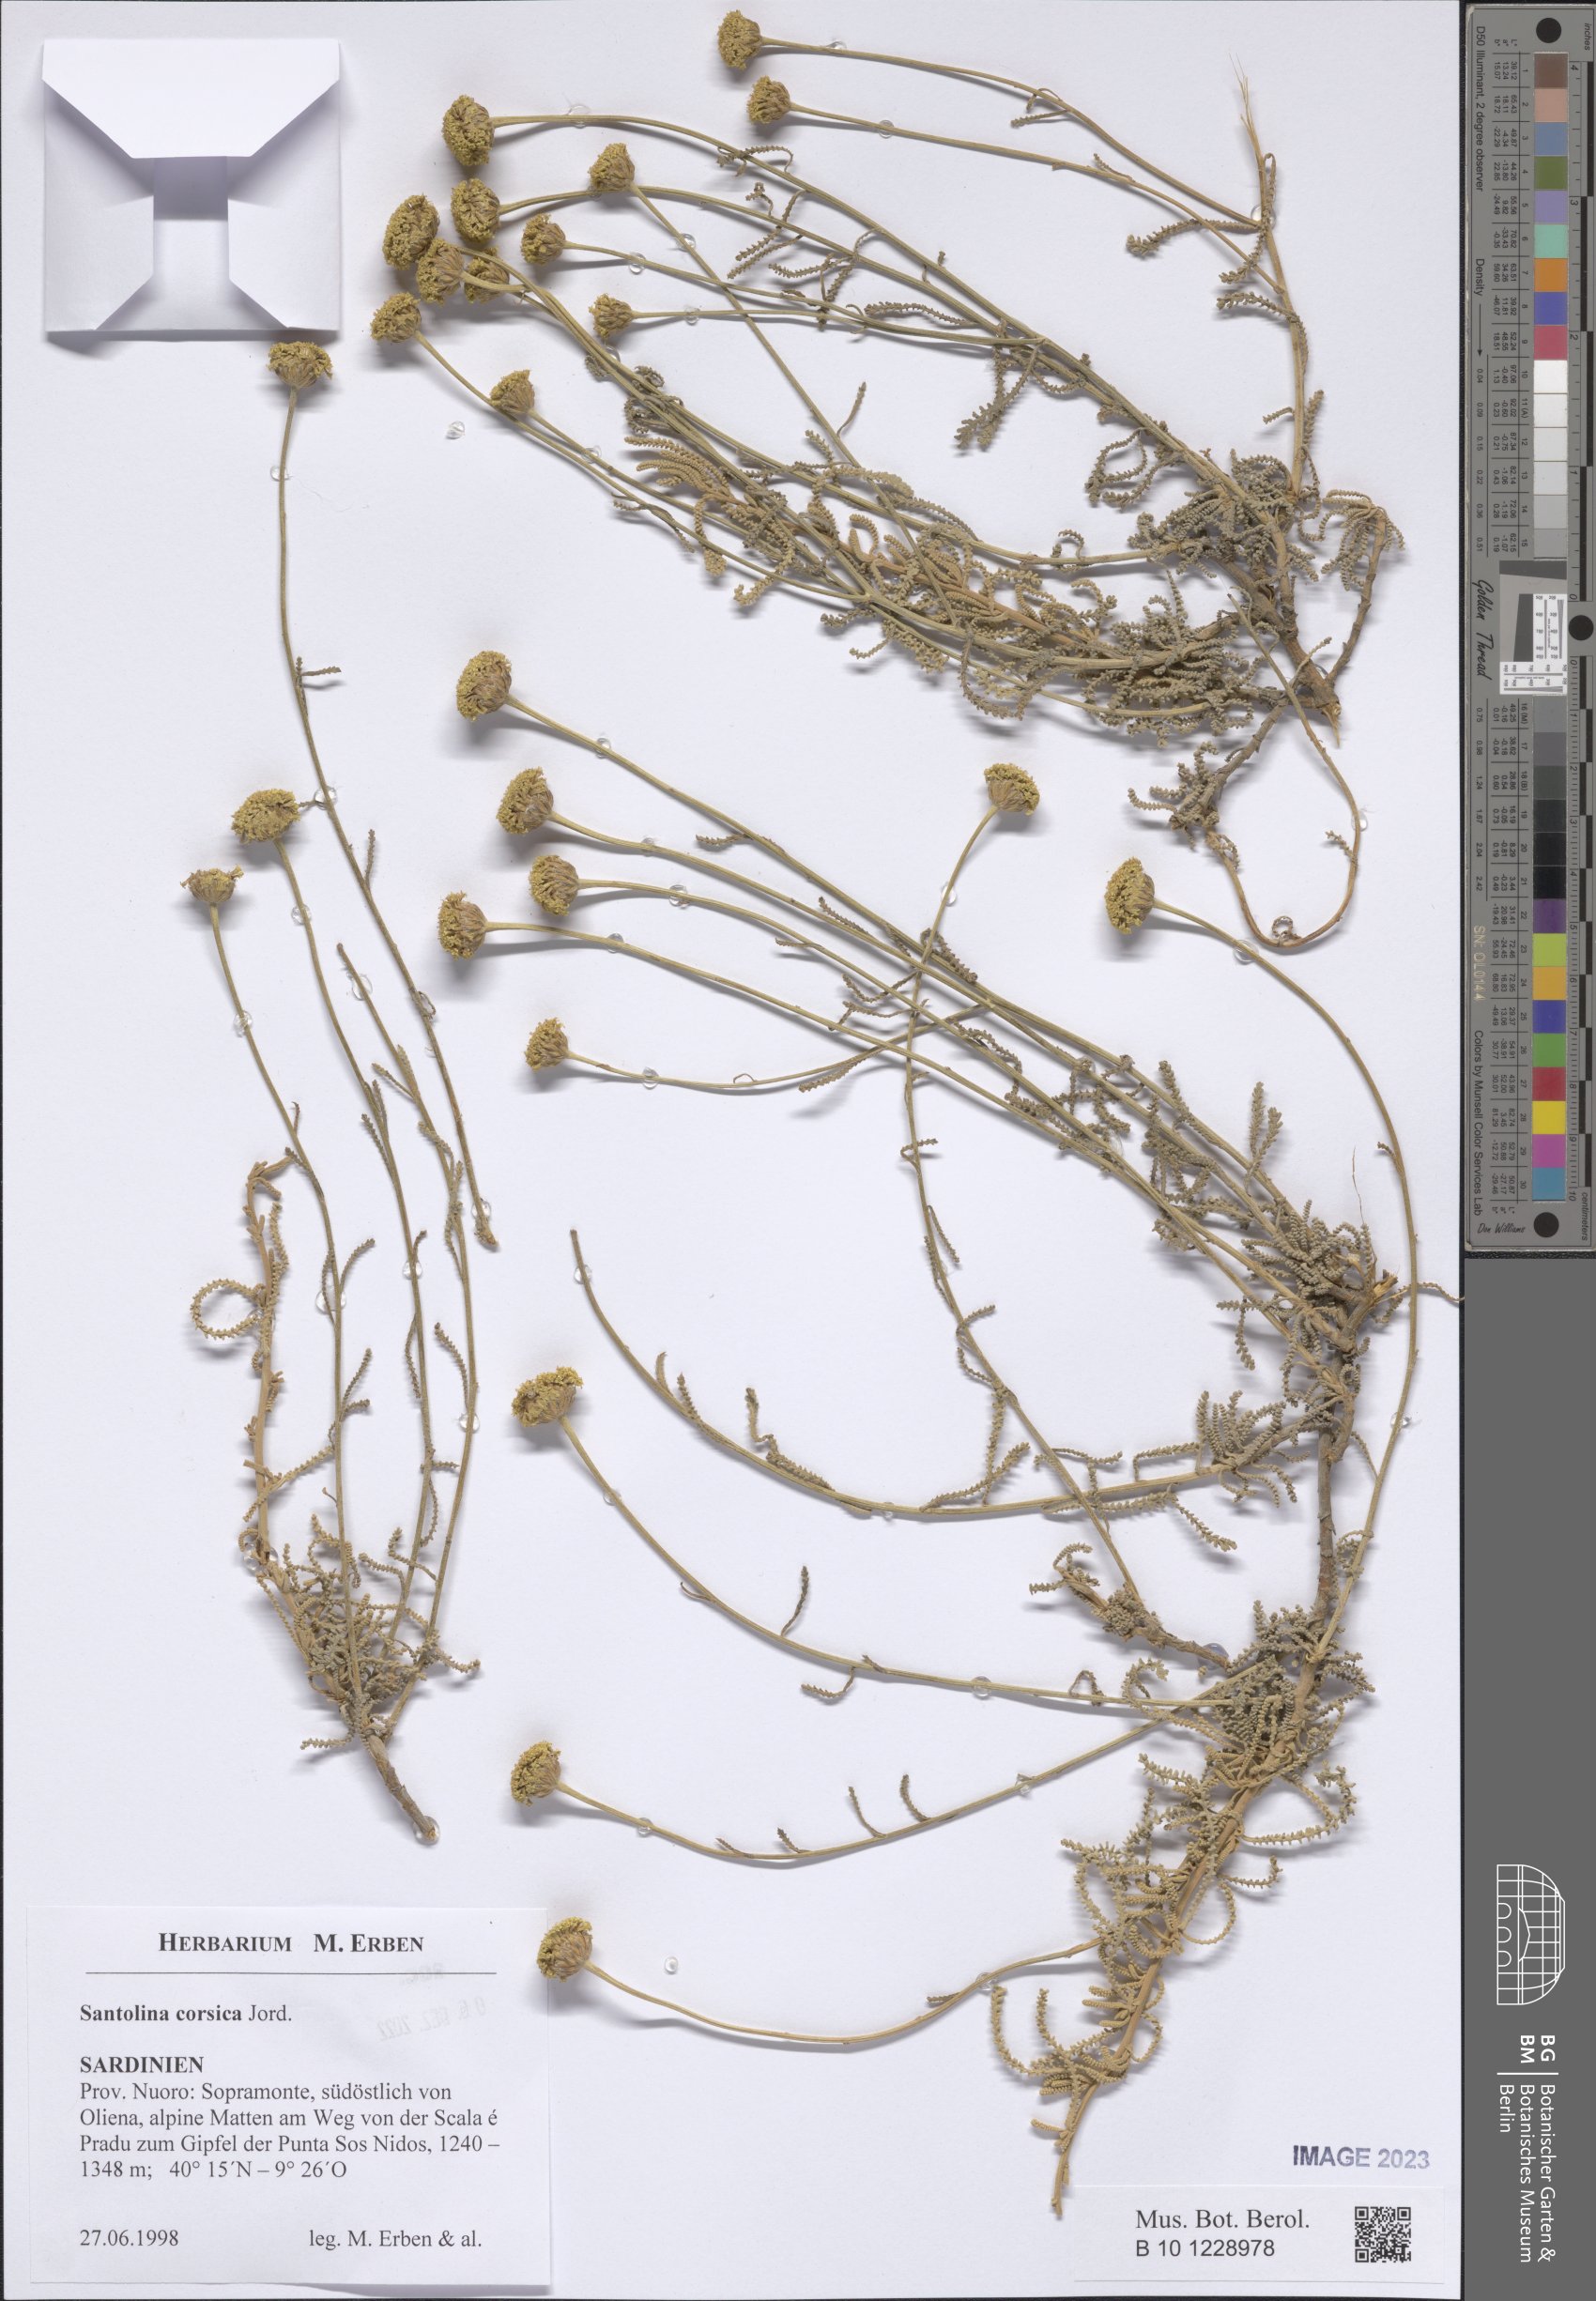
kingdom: Plantae
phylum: Tracheophyta
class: Magnoliopsida
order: Asterales
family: Asteraceae
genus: Santolina
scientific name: Santolina corsica
